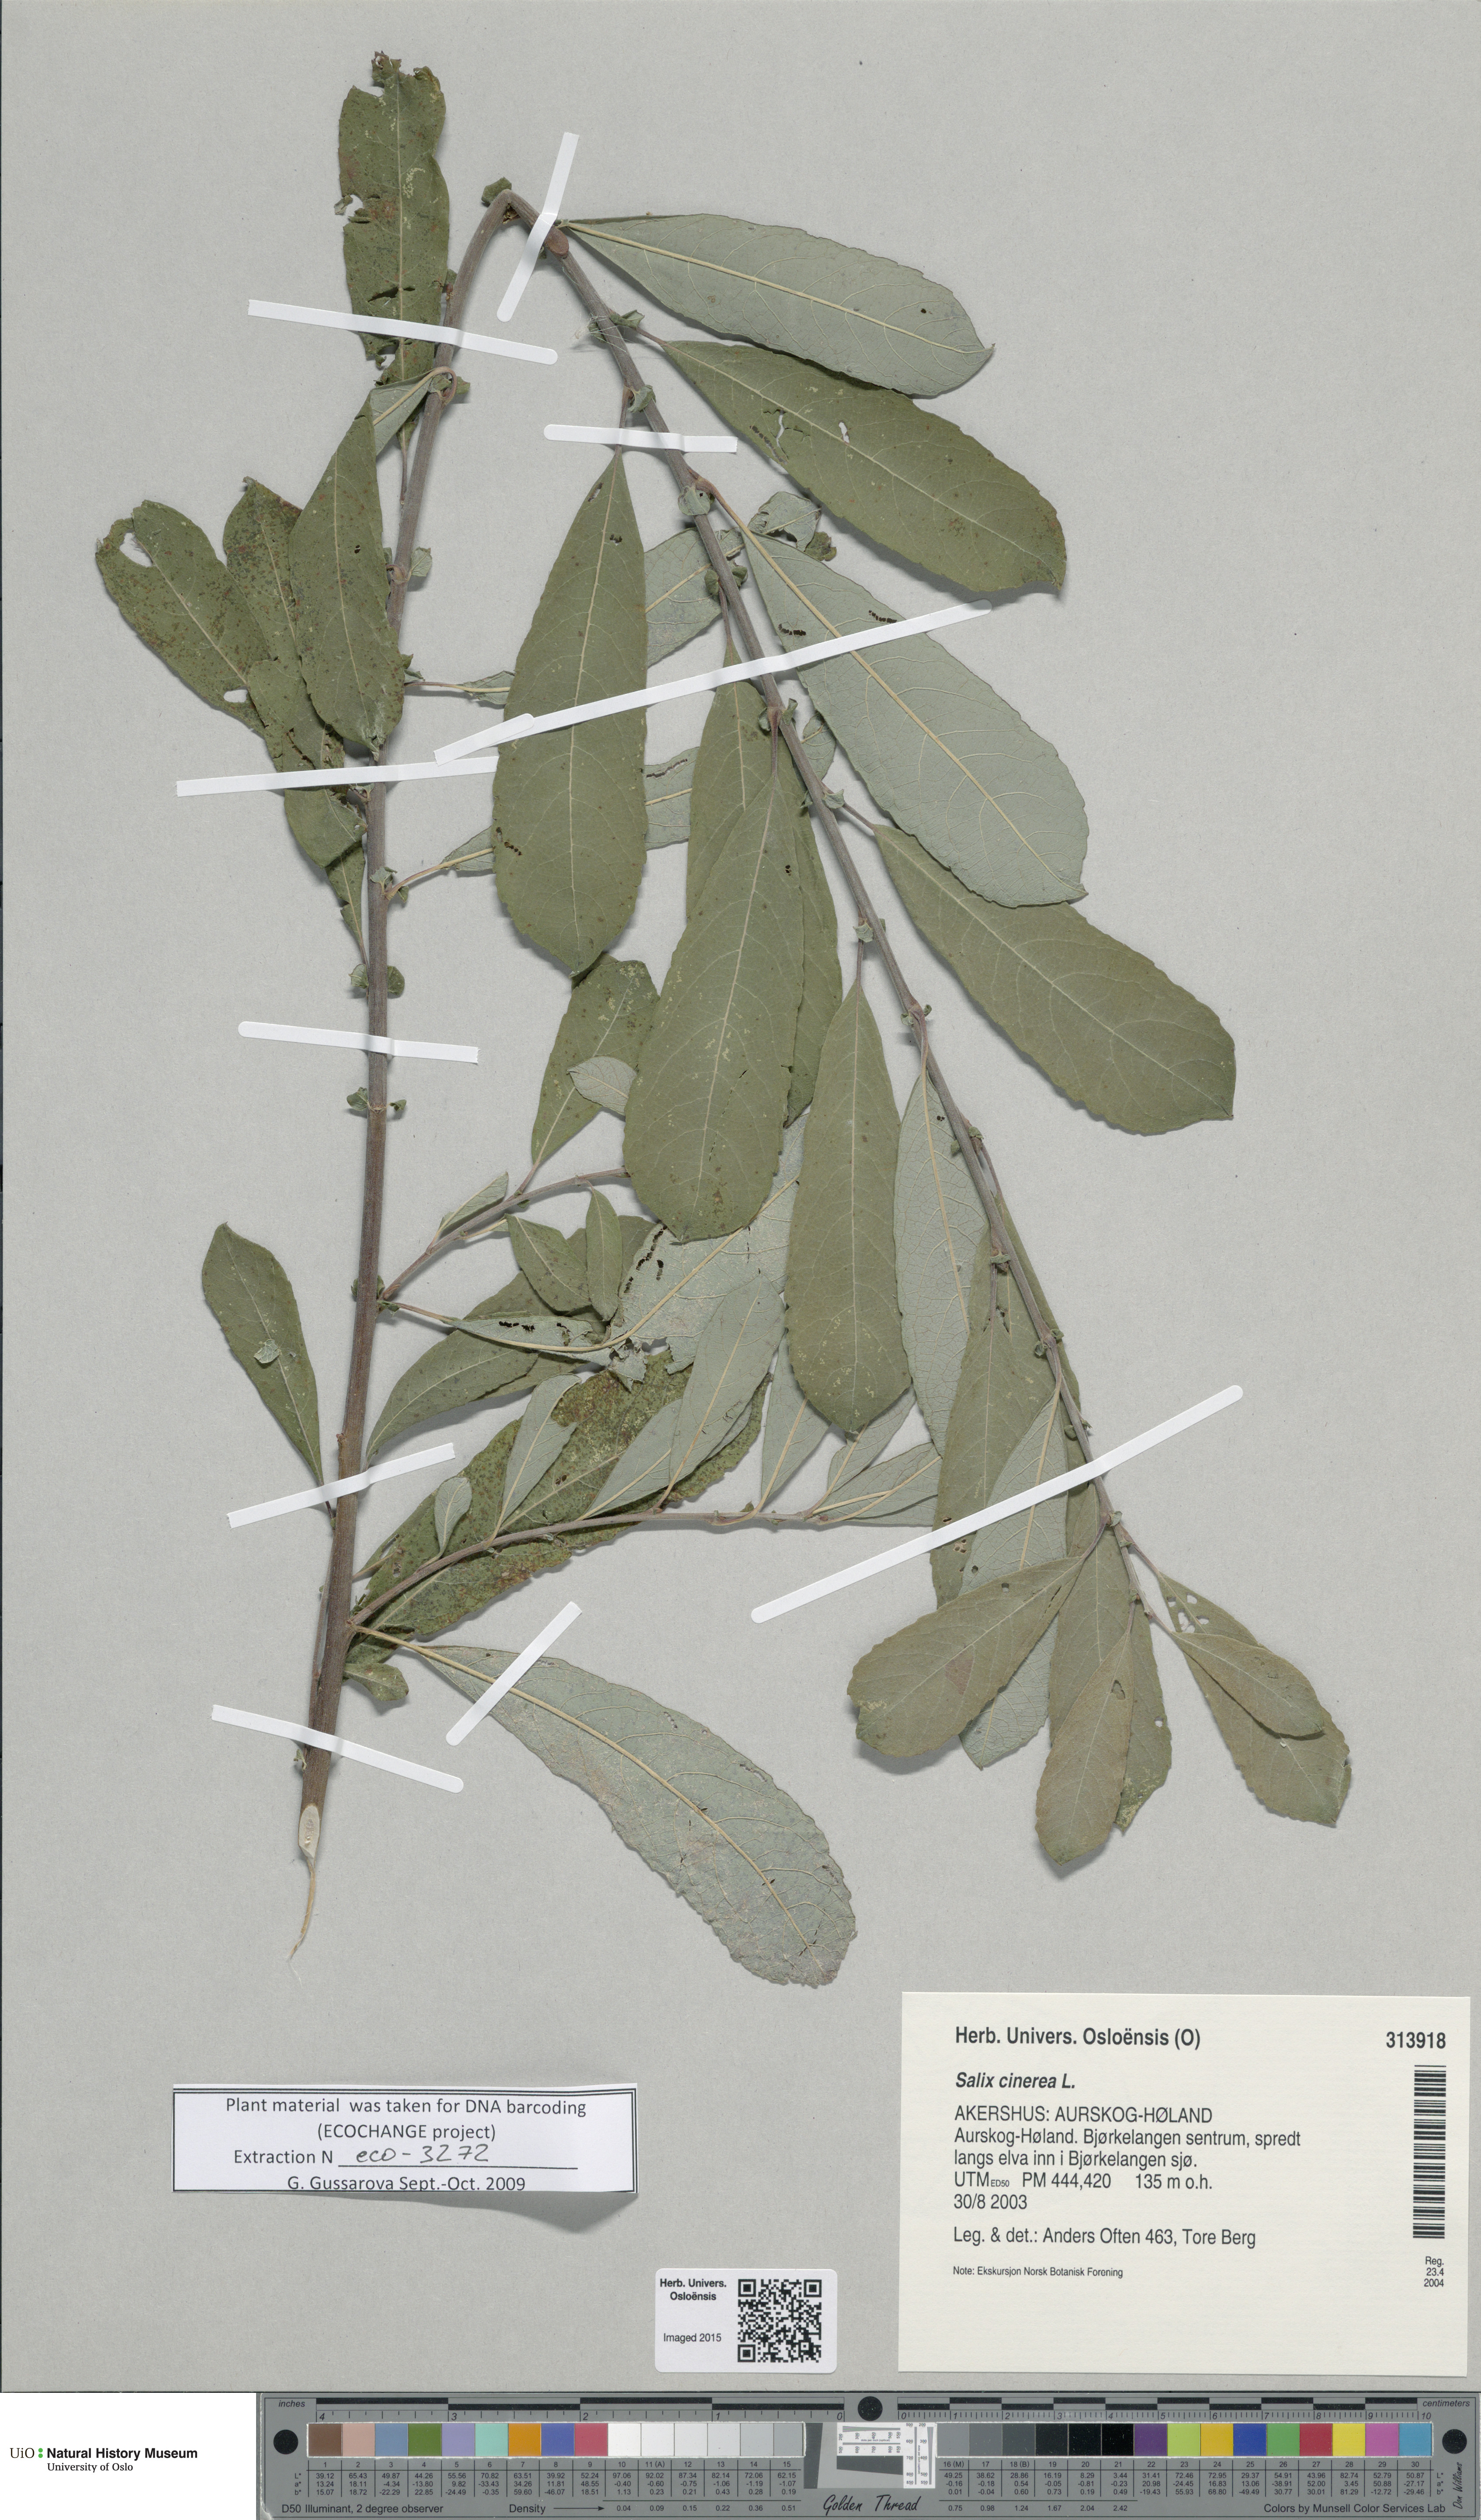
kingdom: Plantae
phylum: Tracheophyta
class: Magnoliopsida
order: Malpighiales
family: Salicaceae
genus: Salix
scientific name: Salix cinerea
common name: Common sallow
